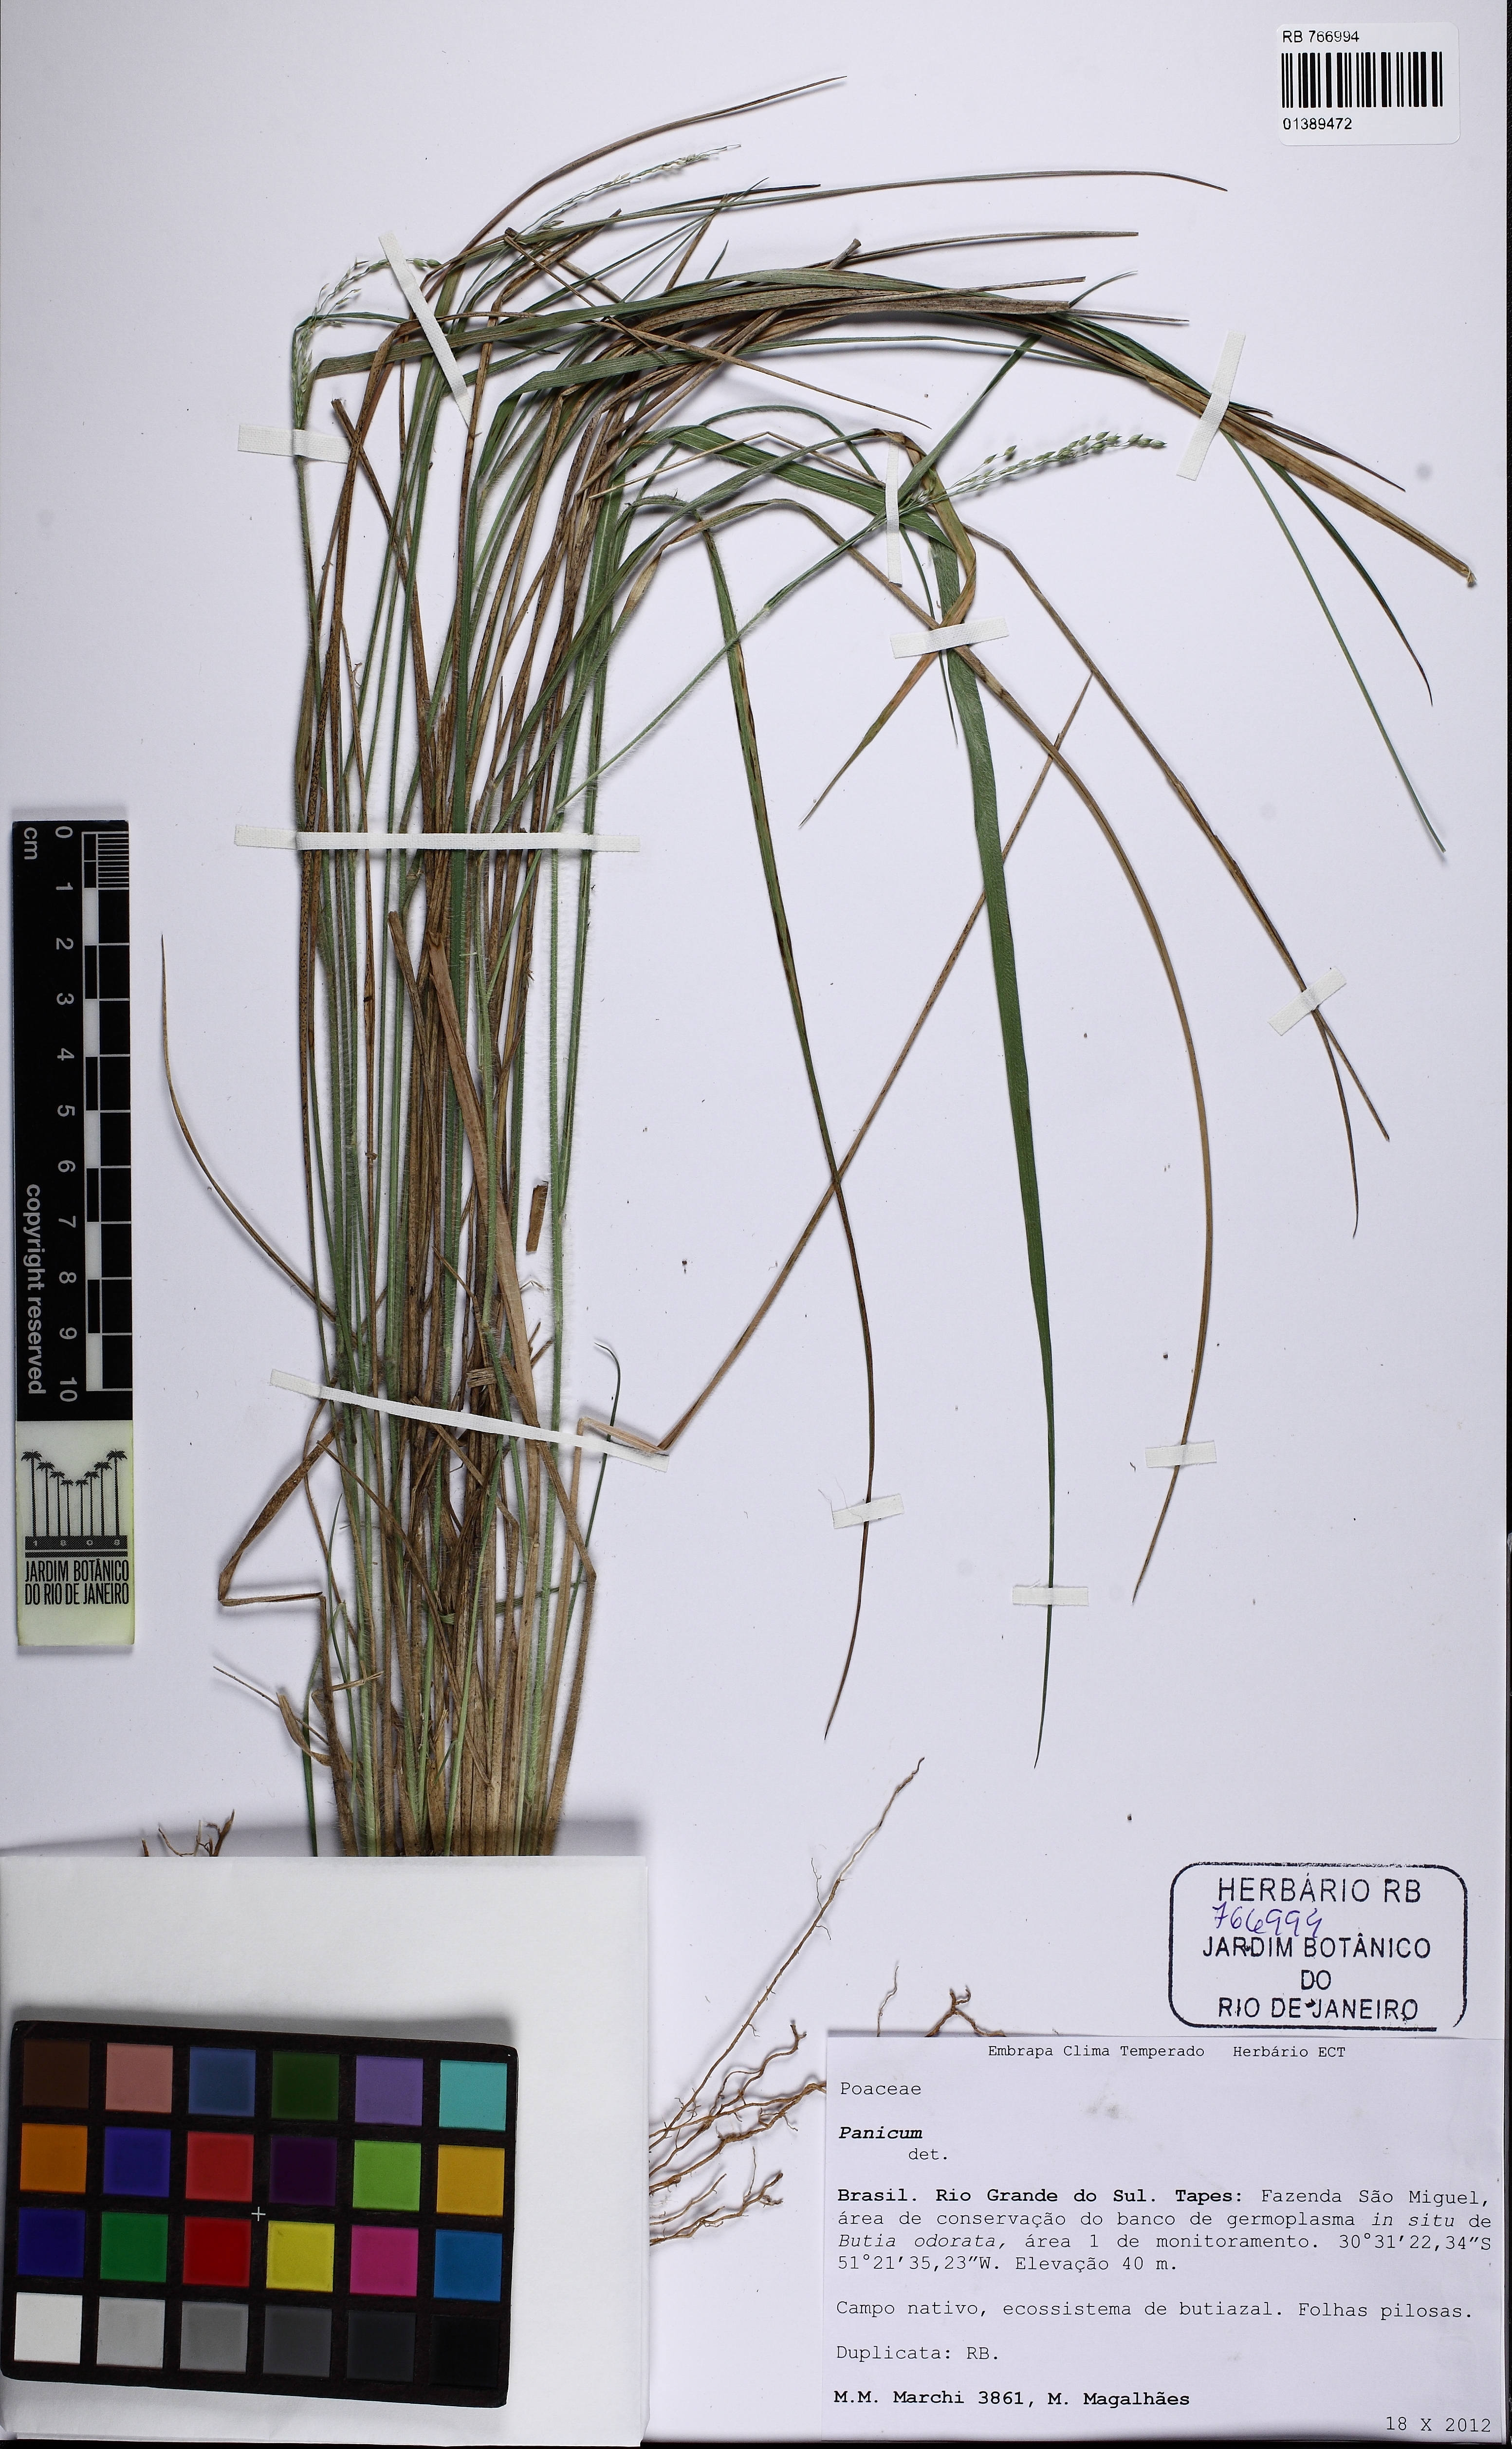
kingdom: Plantae
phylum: Tracheophyta
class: Liliopsida
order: Poales
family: Poaceae
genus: Panicum
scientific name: Panicum
